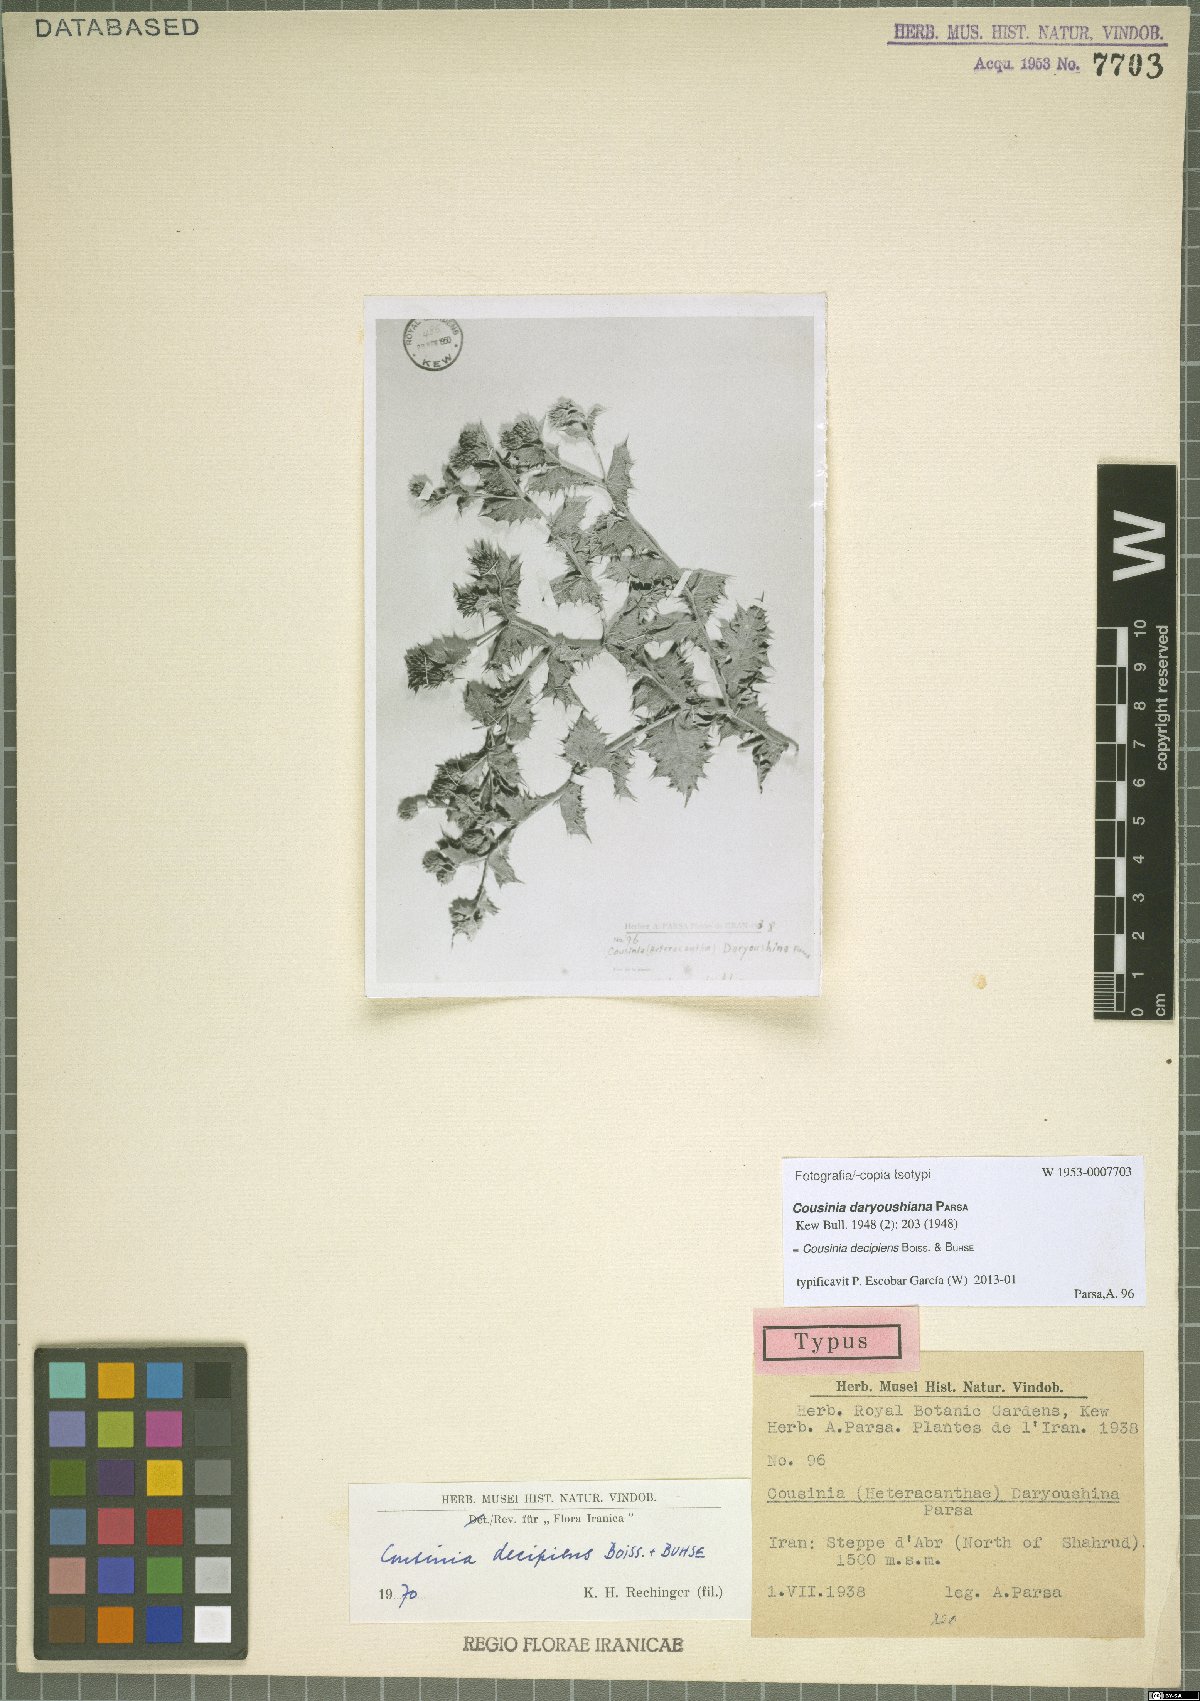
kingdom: Plantae
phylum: Tracheophyta
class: Magnoliopsida
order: Asterales
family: Asteraceae
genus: Cousinia
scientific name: Cousinia decipiens
